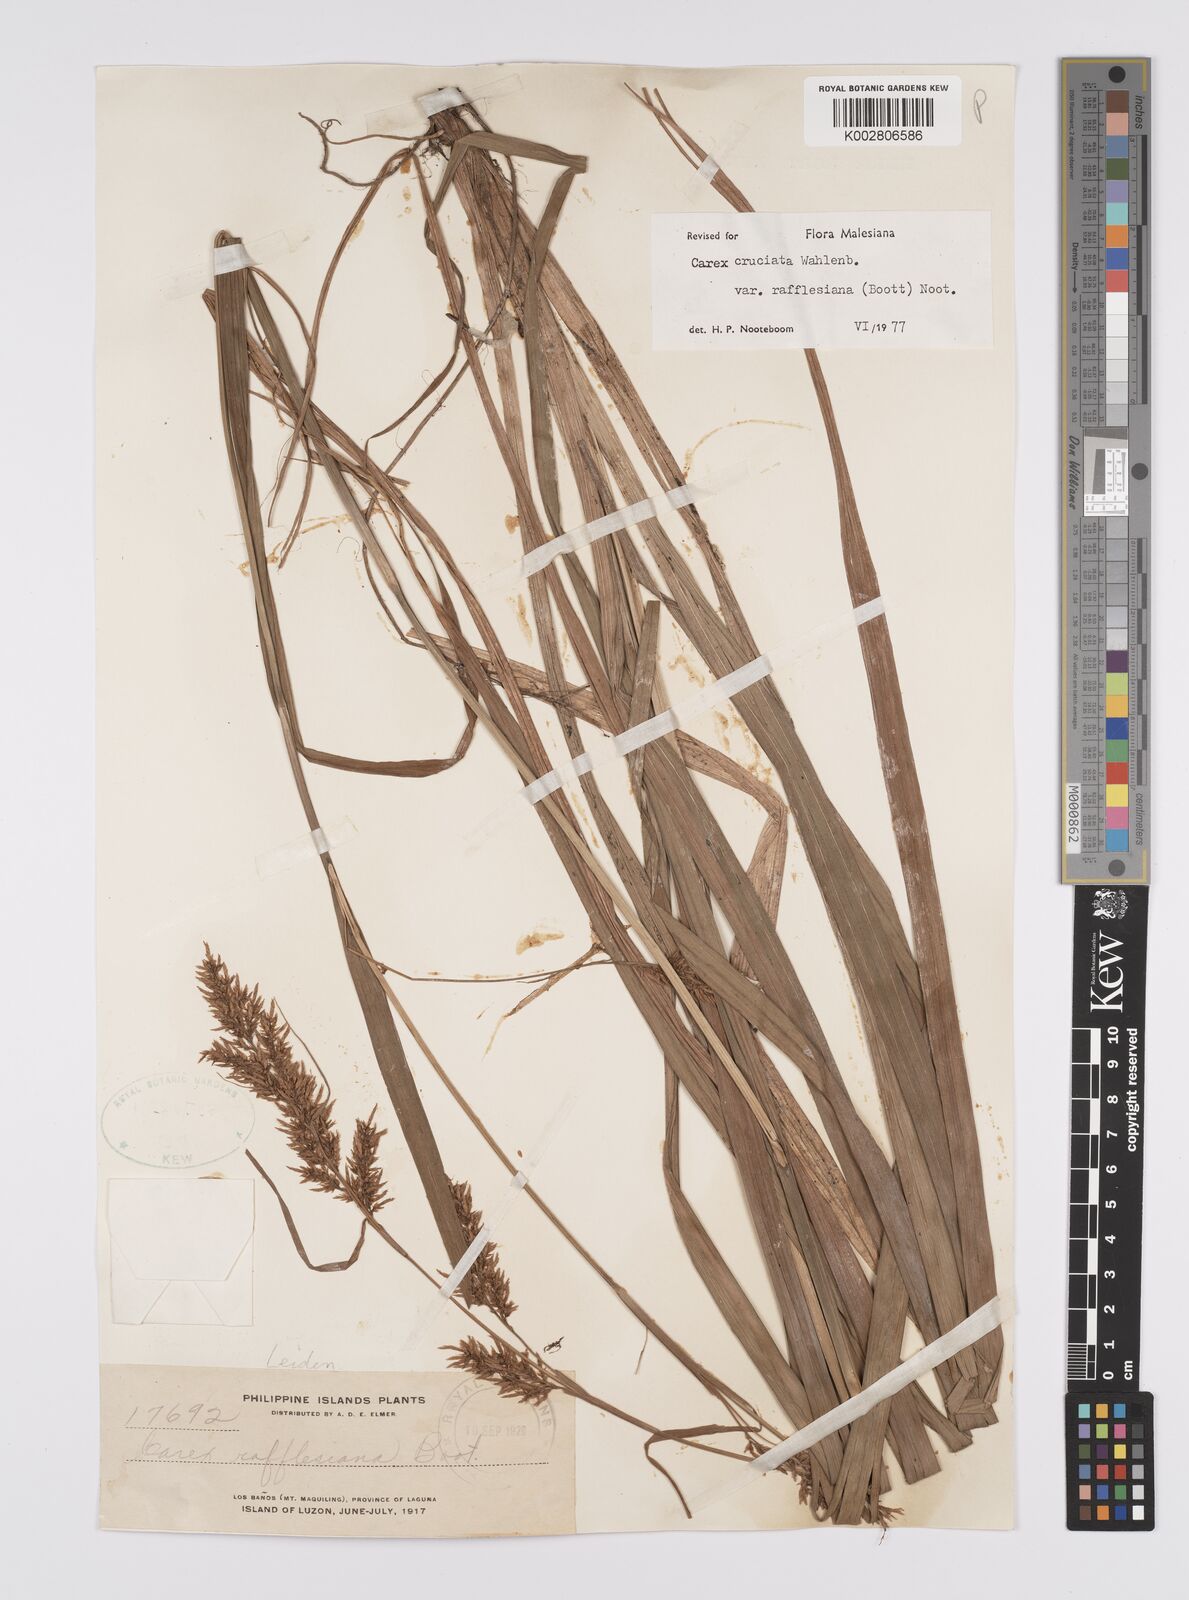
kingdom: Plantae
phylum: Tracheophyta
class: Liliopsida
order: Poales
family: Cyperaceae
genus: Carex
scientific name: Carex rafflesiana
